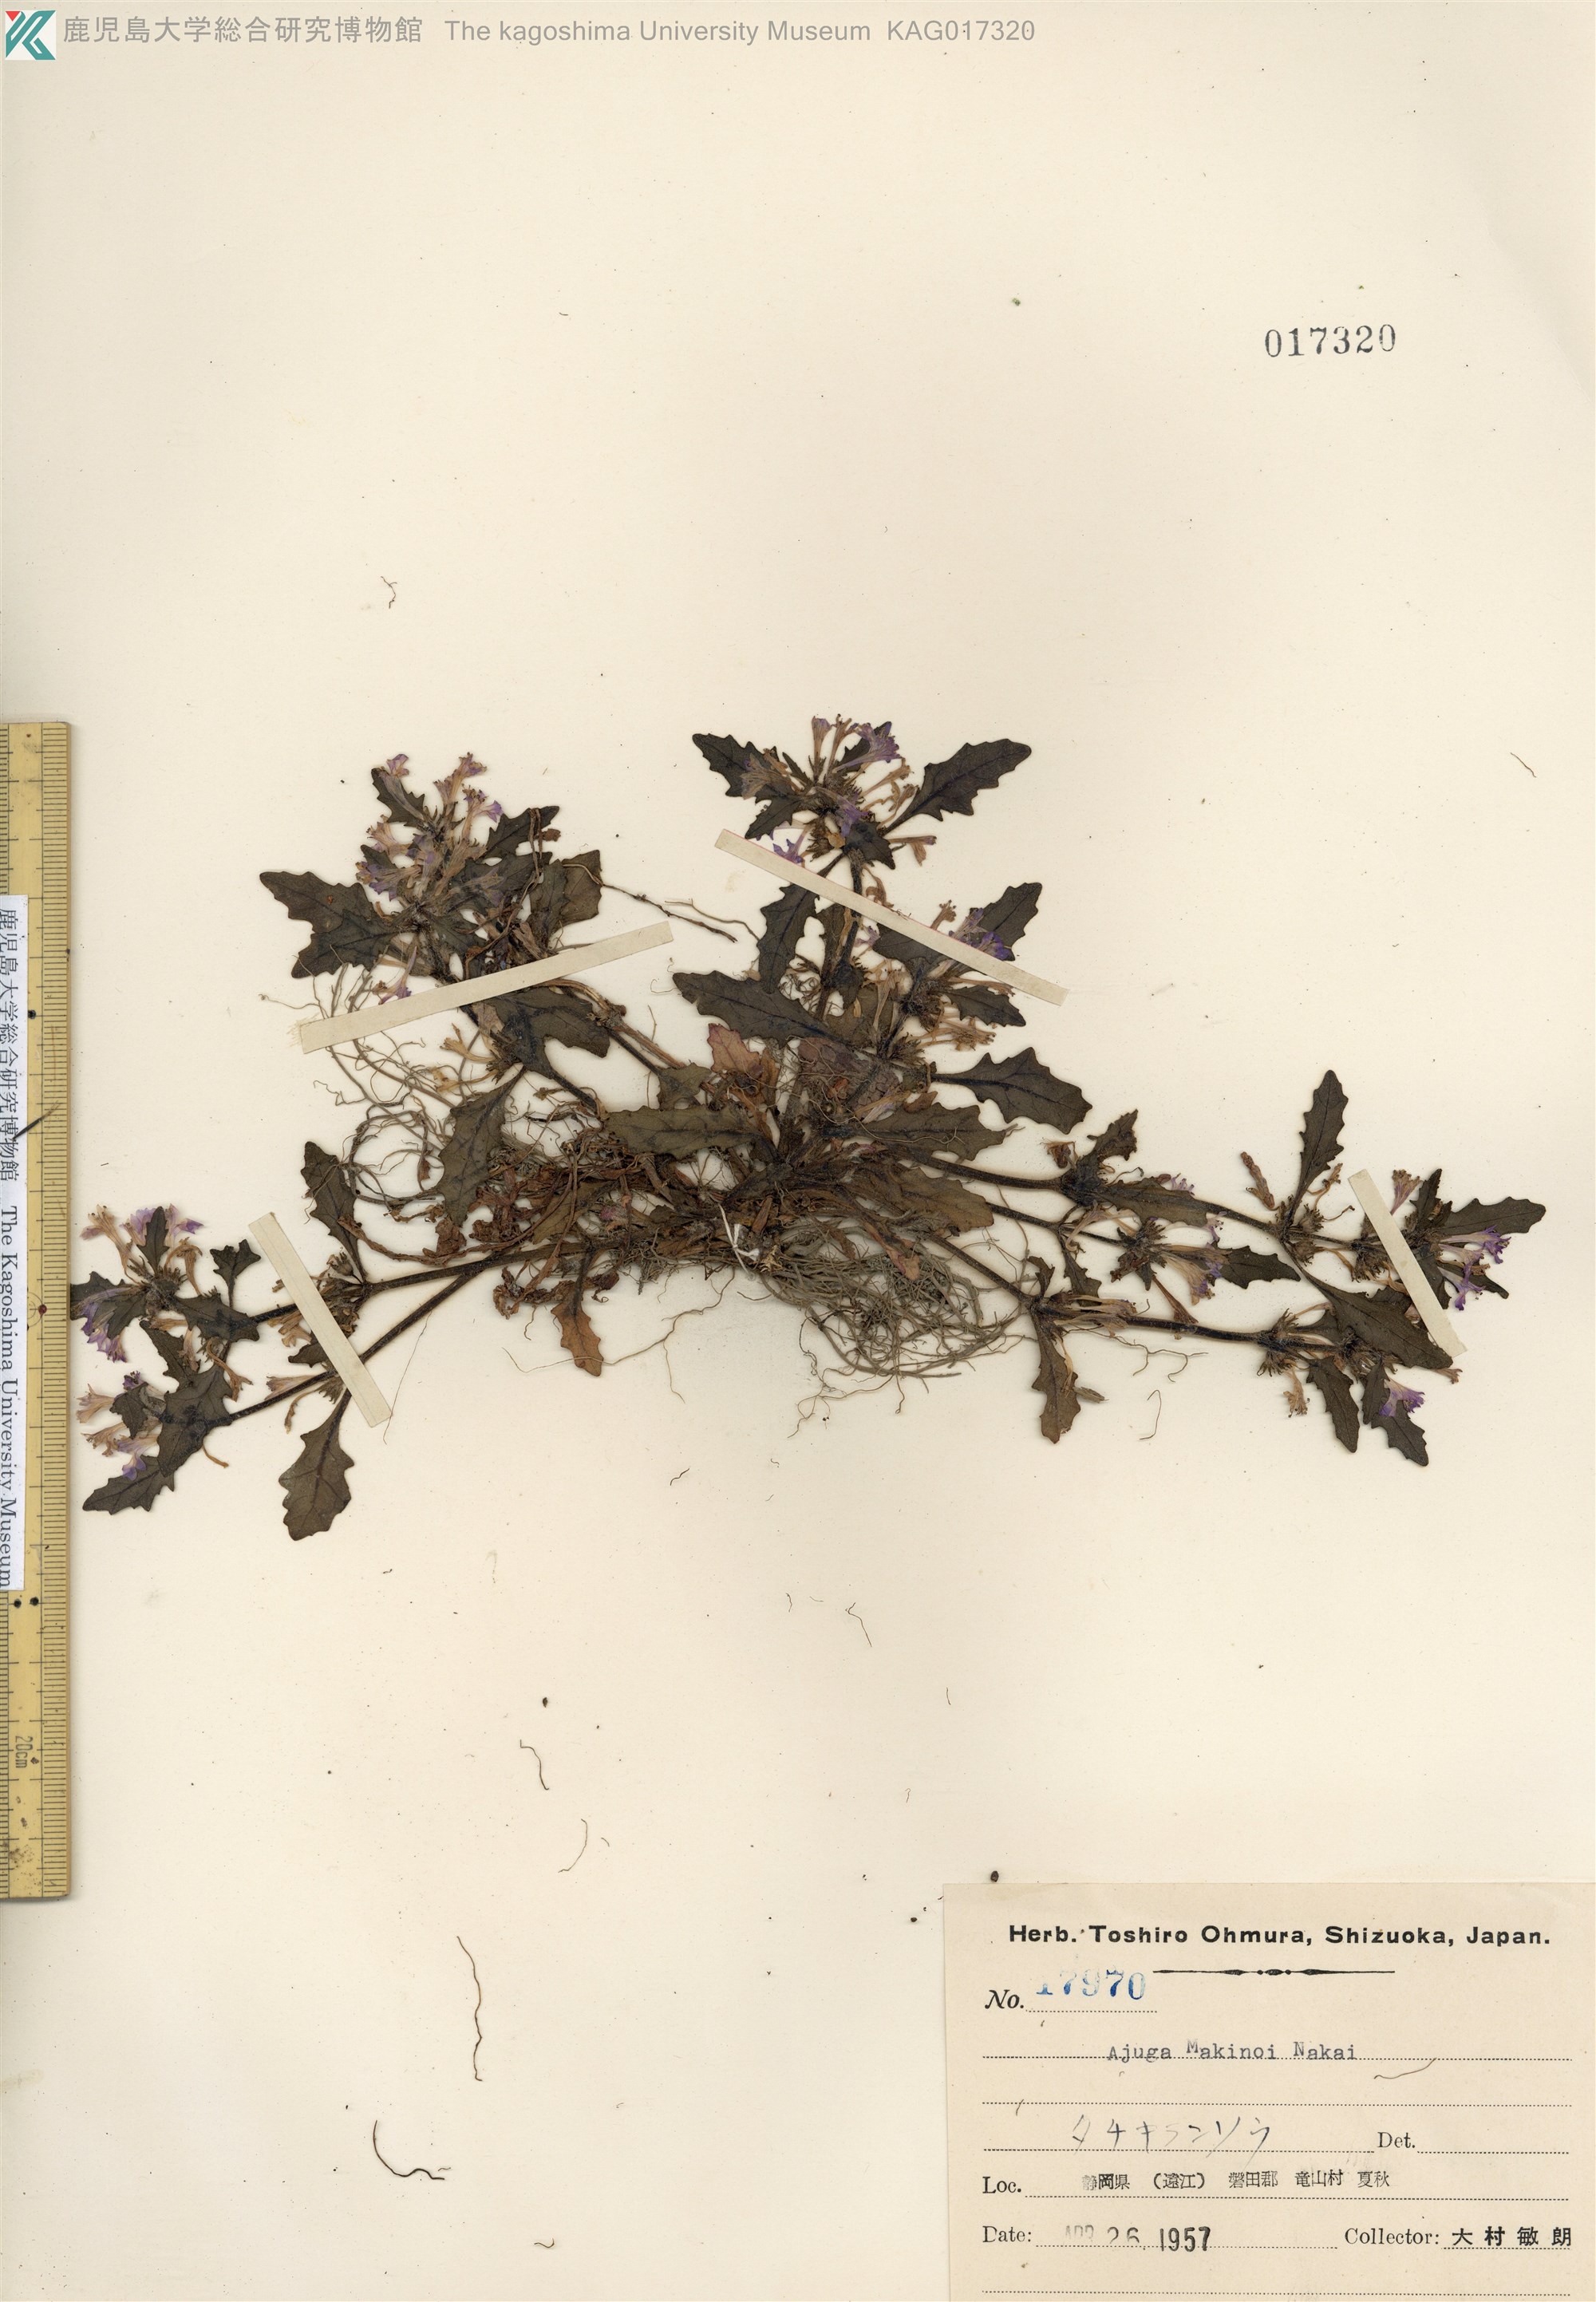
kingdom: Plantae
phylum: Tracheophyta
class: Magnoliopsida
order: Lamiales
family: Lamiaceae
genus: Ajuga
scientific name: Ajuga makinoi
